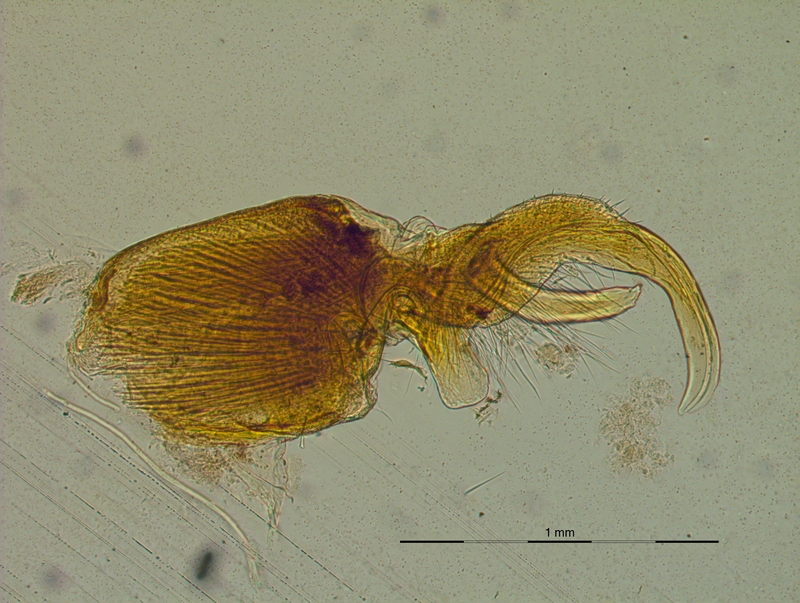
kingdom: Animalia
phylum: Arthropoda
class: Diplopoda
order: Polydesmida
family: Xystodesmidae
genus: Harpaphe
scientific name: Harpaphe cummingsiensis
